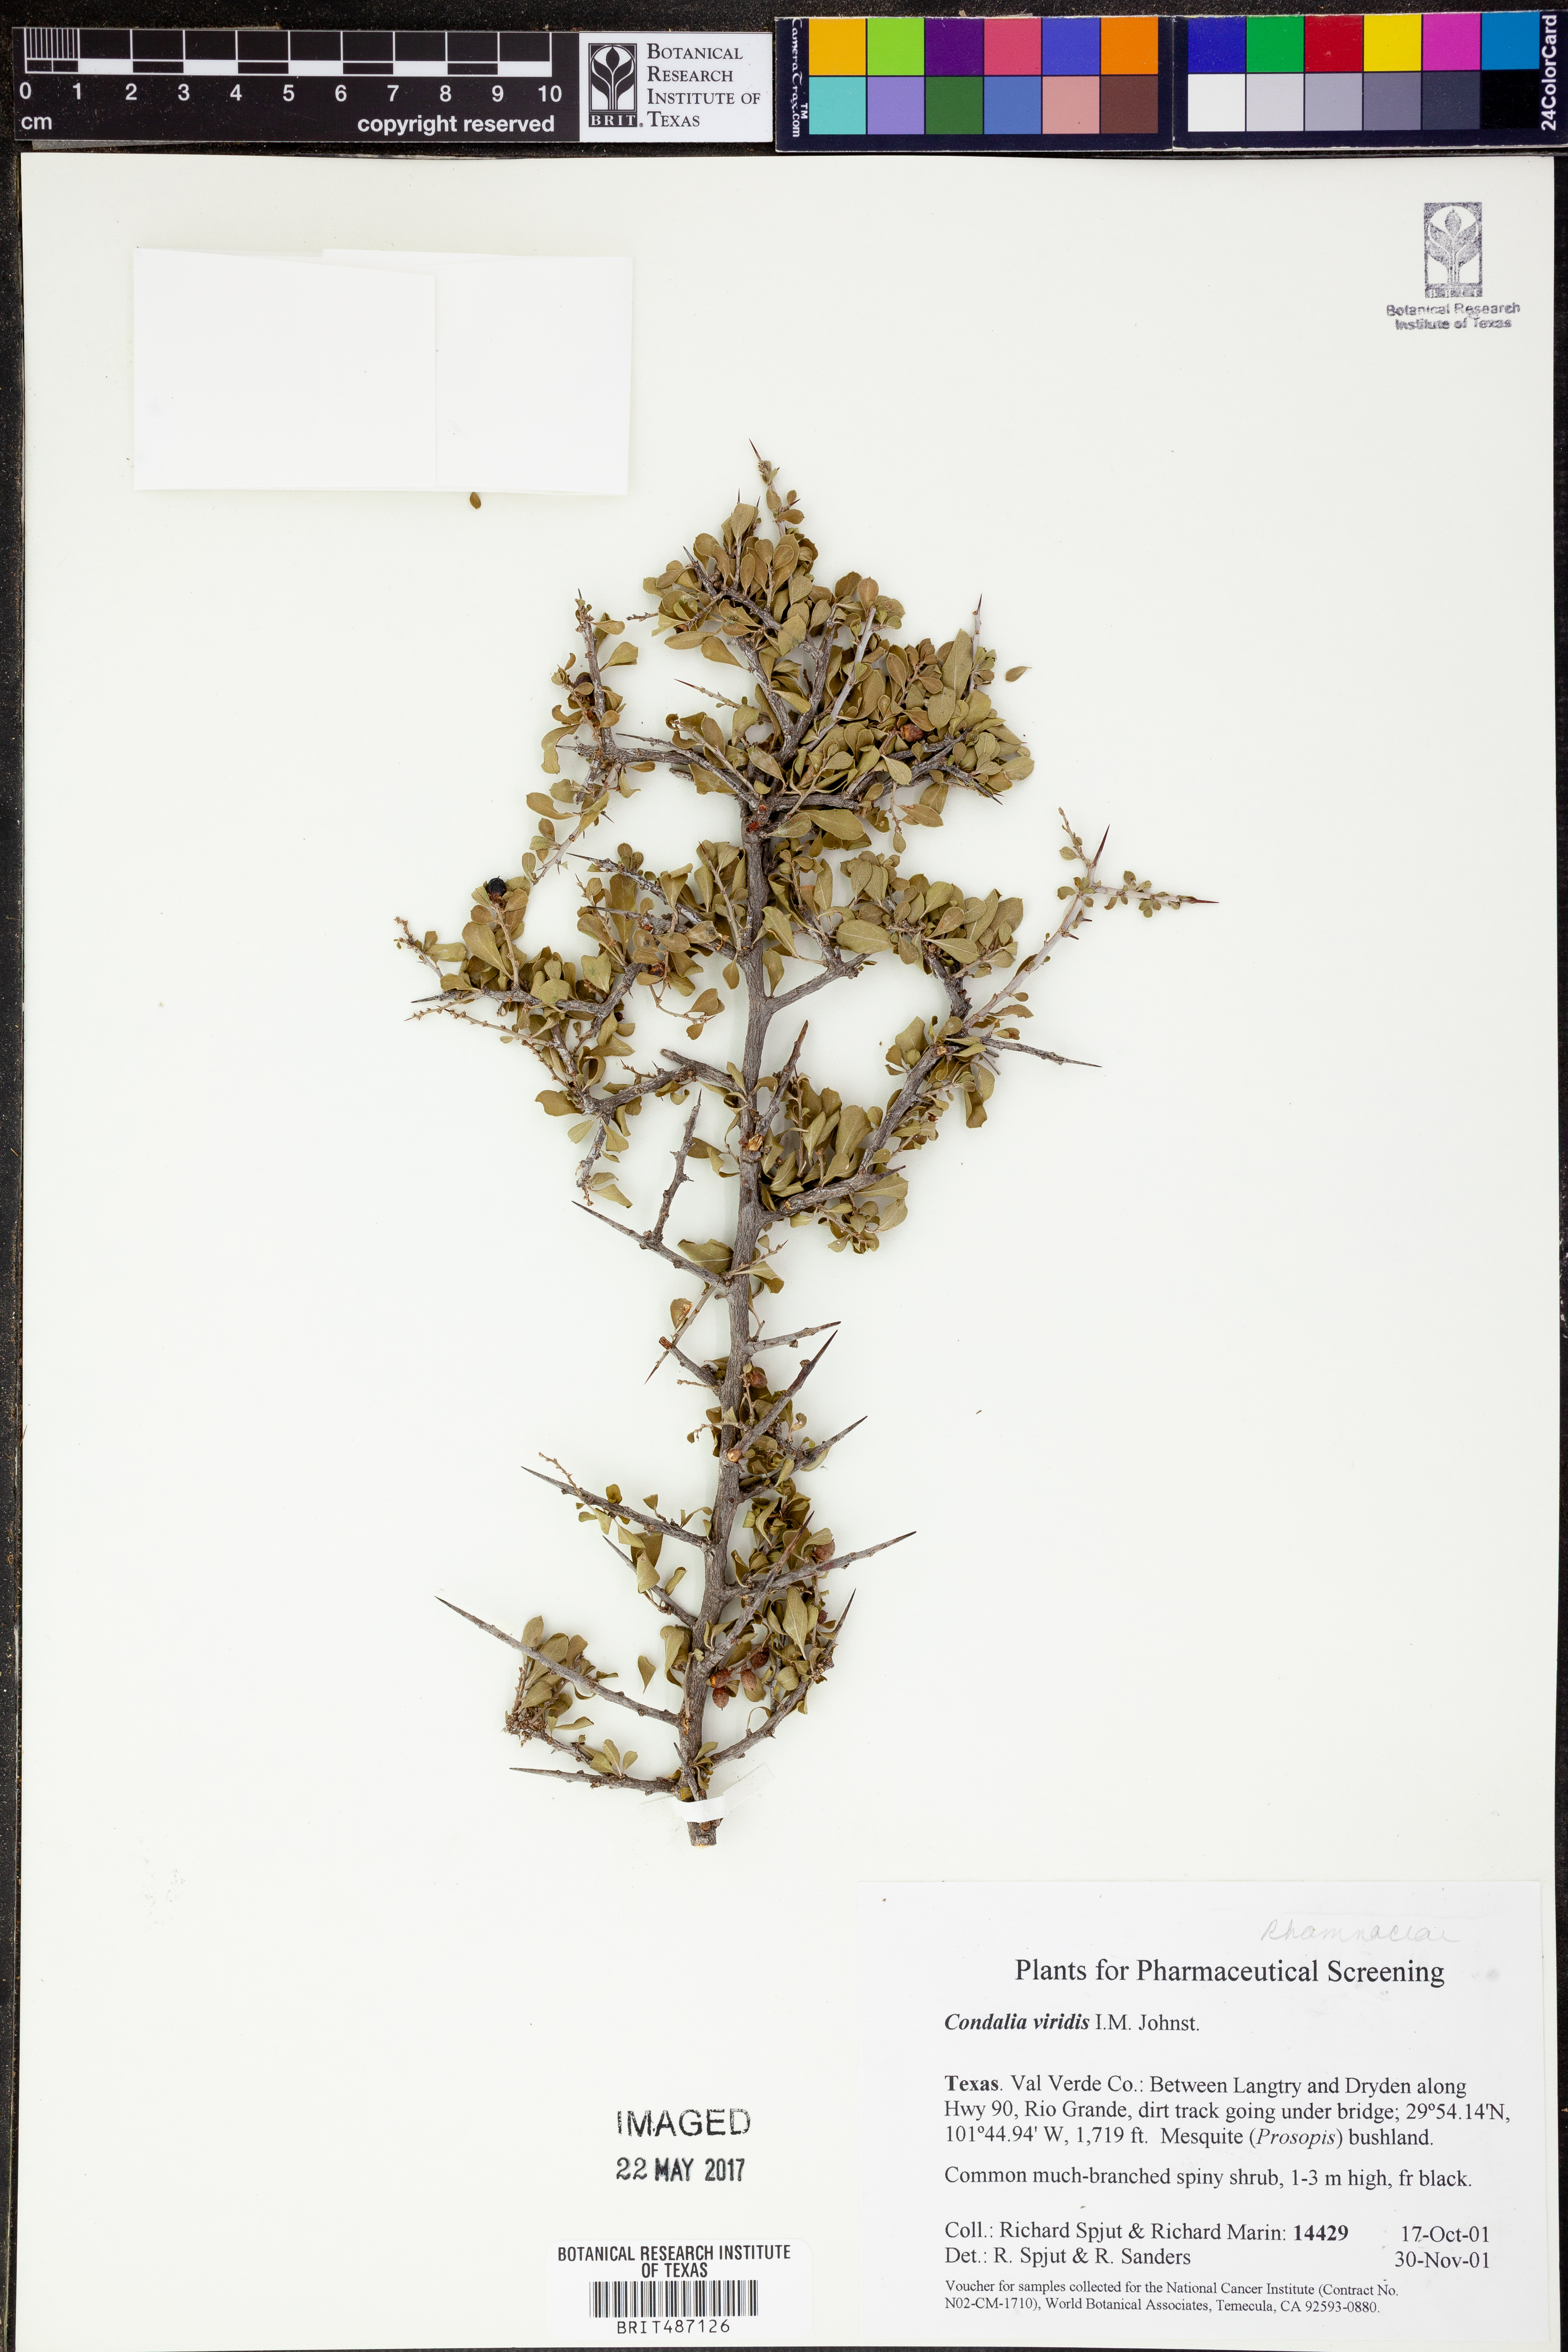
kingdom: Plantae
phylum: Tracheophyta
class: Magnoliopsida
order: Rosales
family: Rhamnaceae
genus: Condalia
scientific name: Condalia viridis
